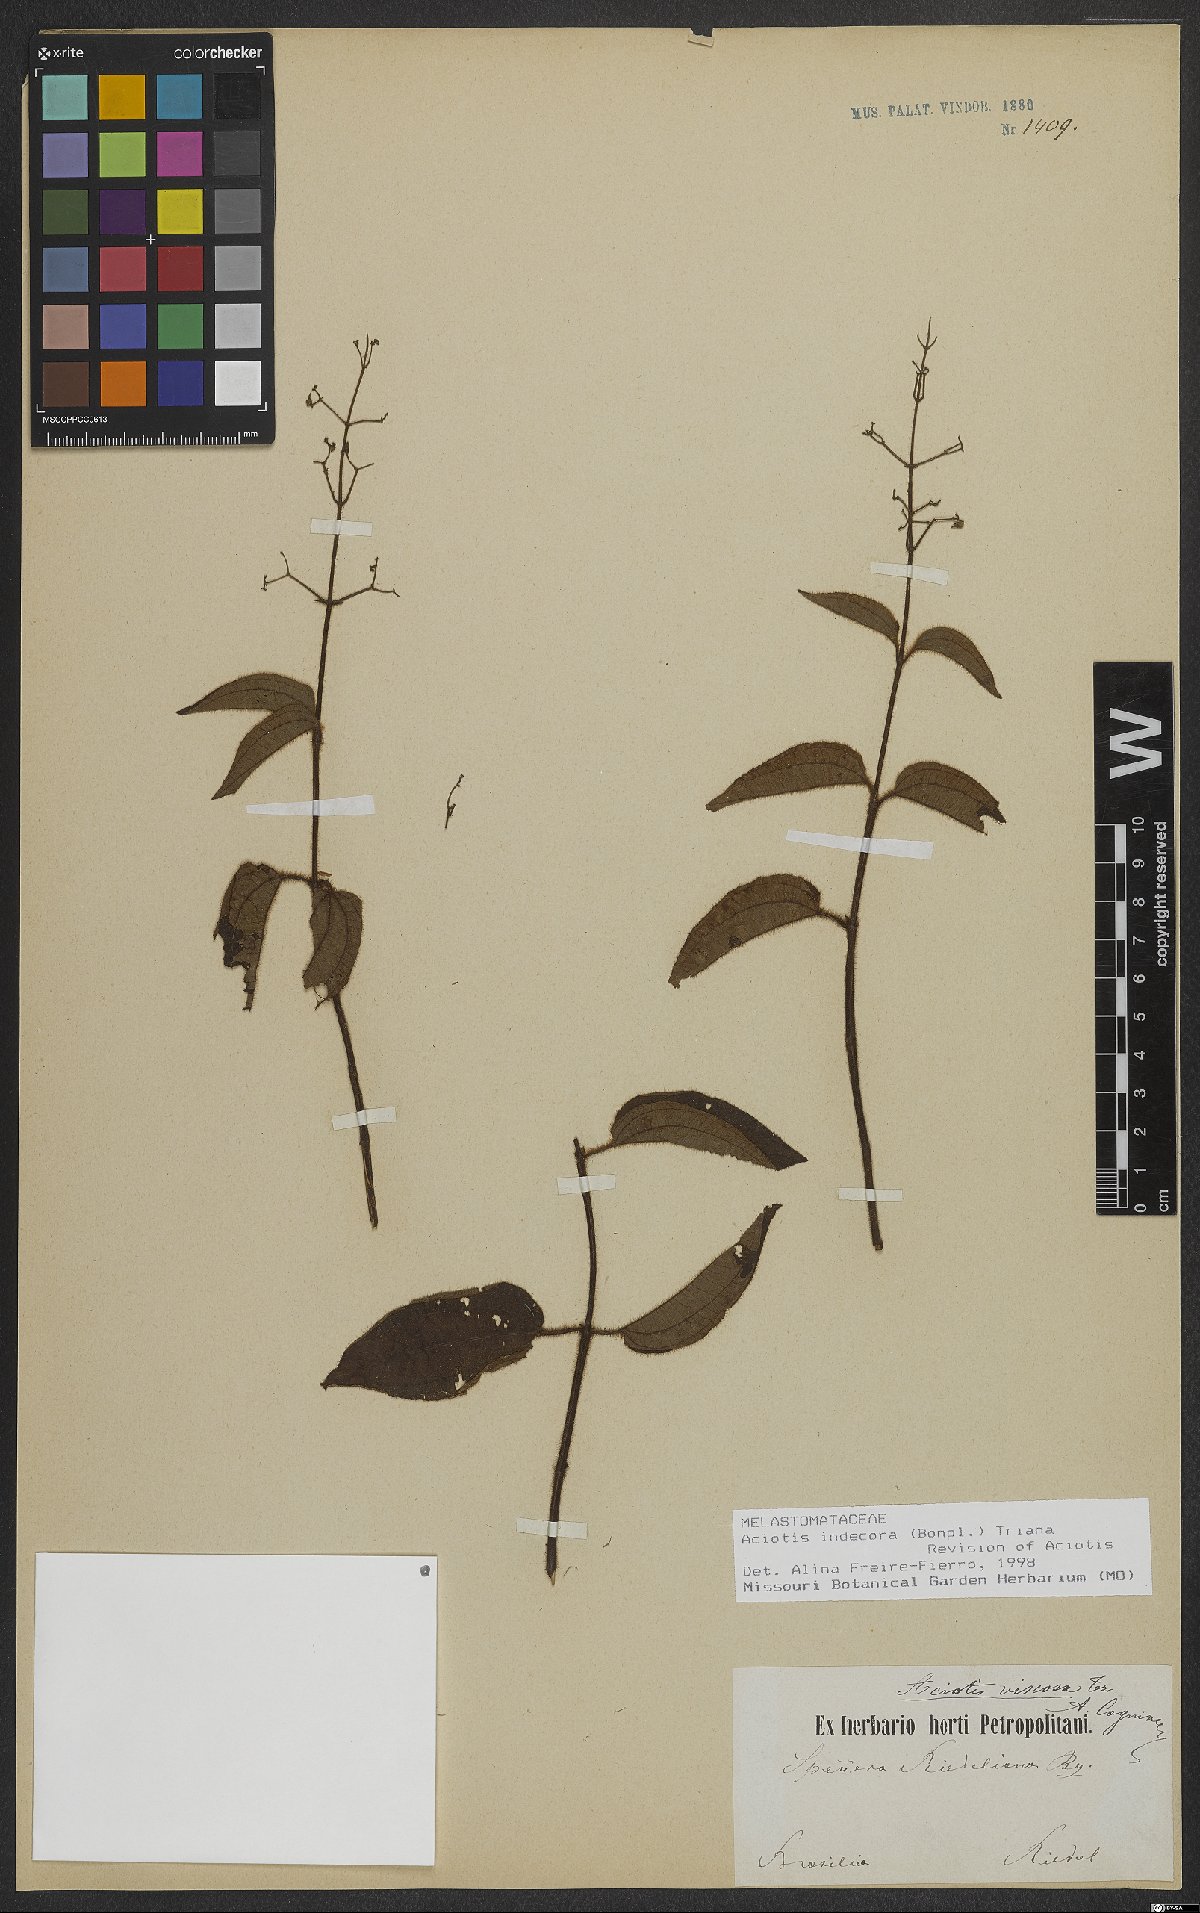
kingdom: Plantae
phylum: Tracheophyta
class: Magnoliopsida
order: Myrtales
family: Melastomataceae
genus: Aciotis
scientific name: Aciotis indecora
